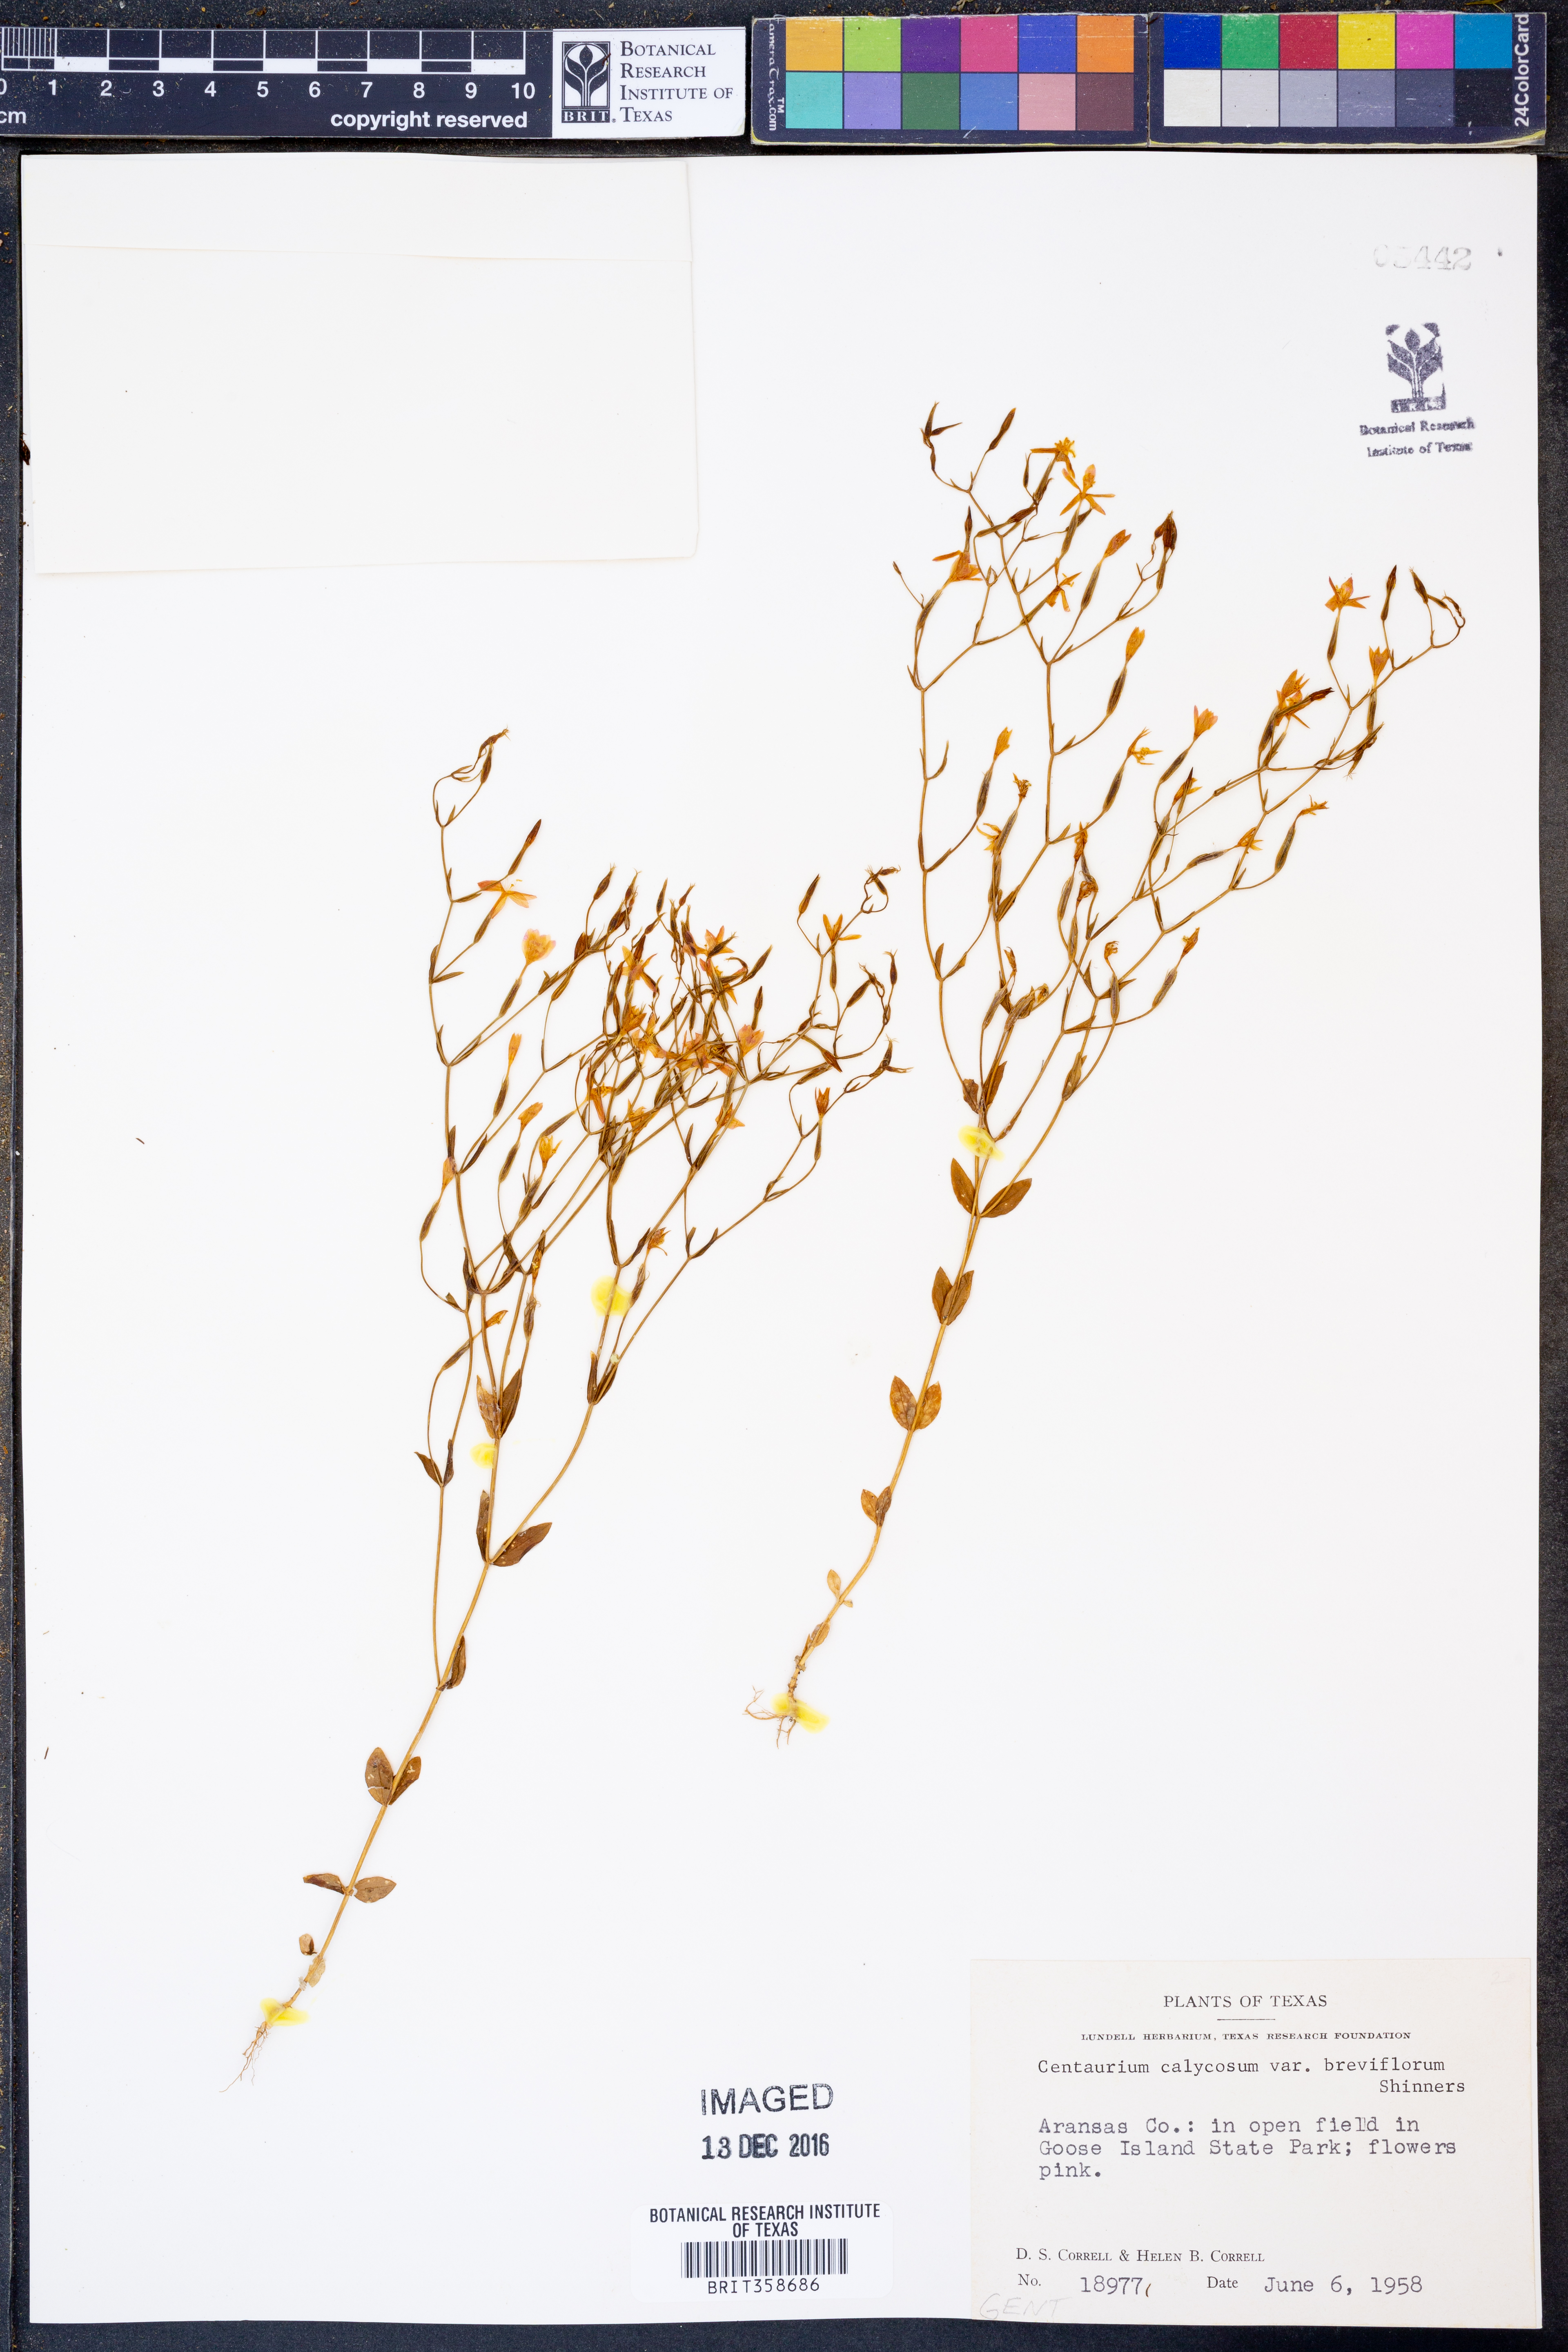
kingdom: Plantae
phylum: Tracheophyta
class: Magnoliopsida
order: Gentianales
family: Gentianaceae
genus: Zeltnera
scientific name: Zeltnera breviflora
